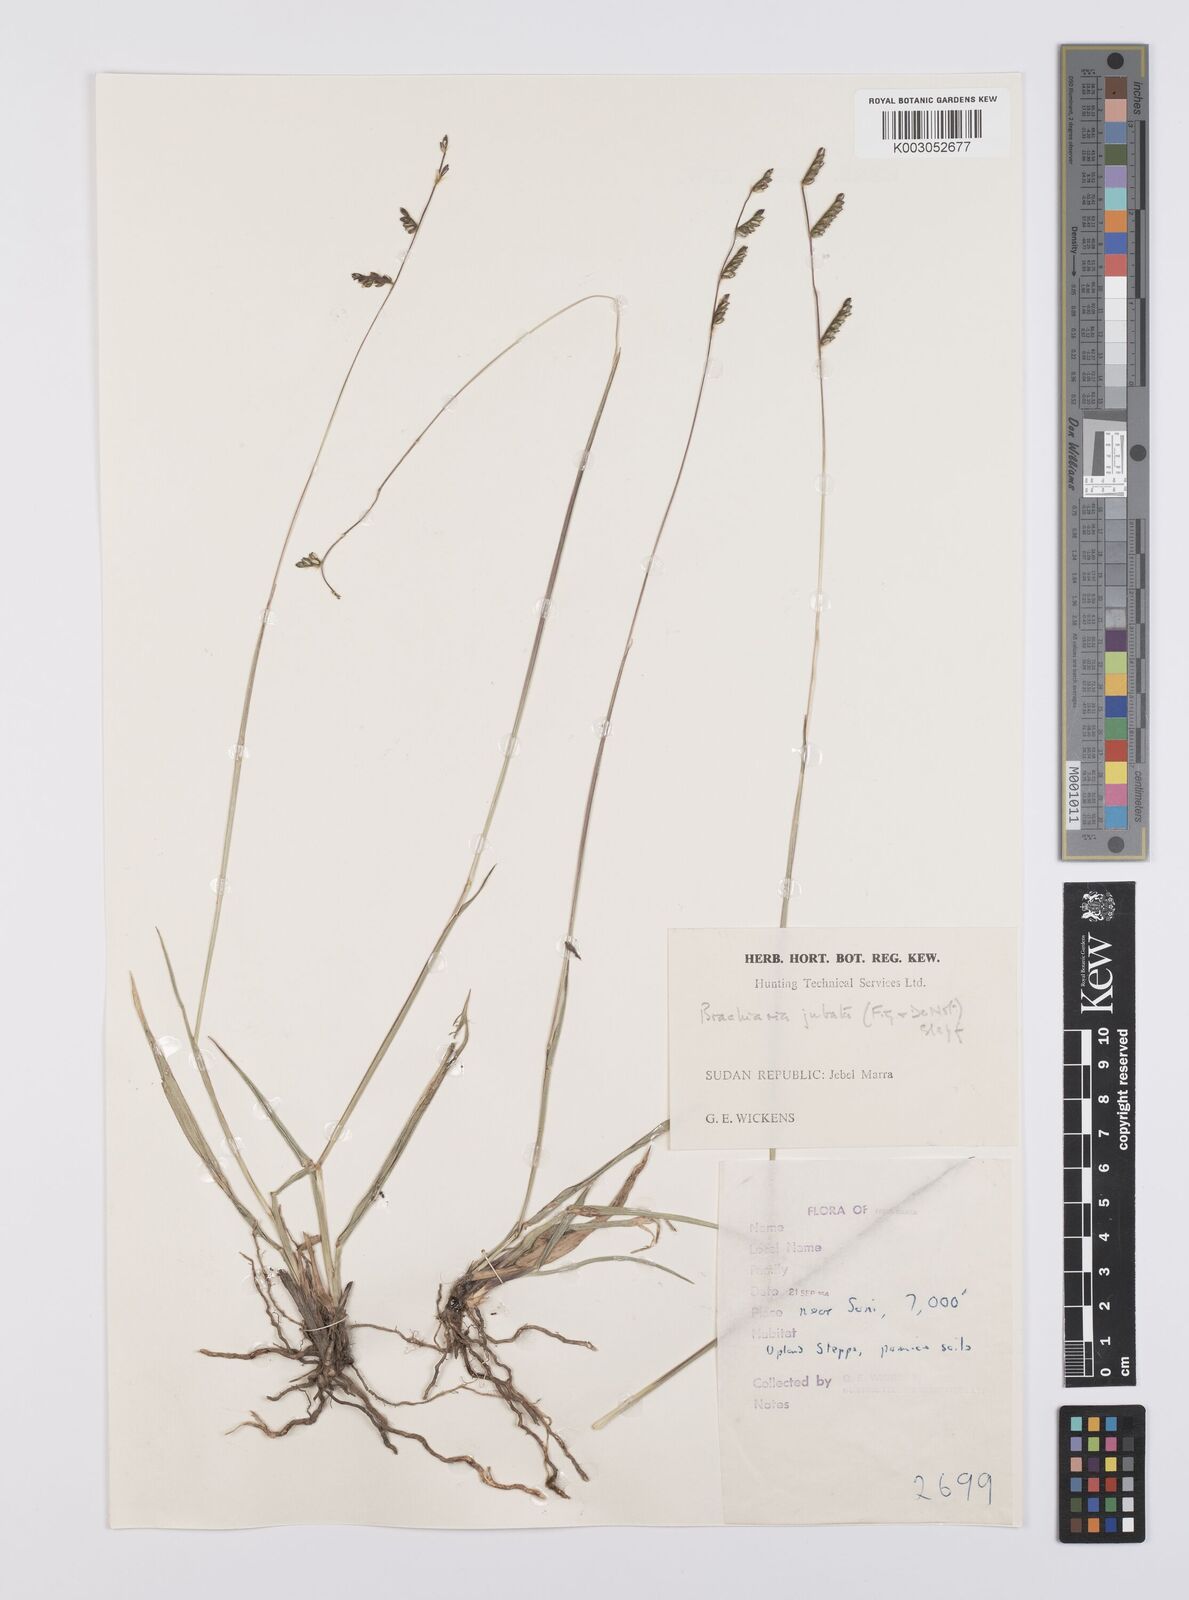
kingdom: Plantae
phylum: Tracheophyta
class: Liliopsida
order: Poales
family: Poaceae
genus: Urochloa
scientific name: Urochloa jubata
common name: Buffalograss
